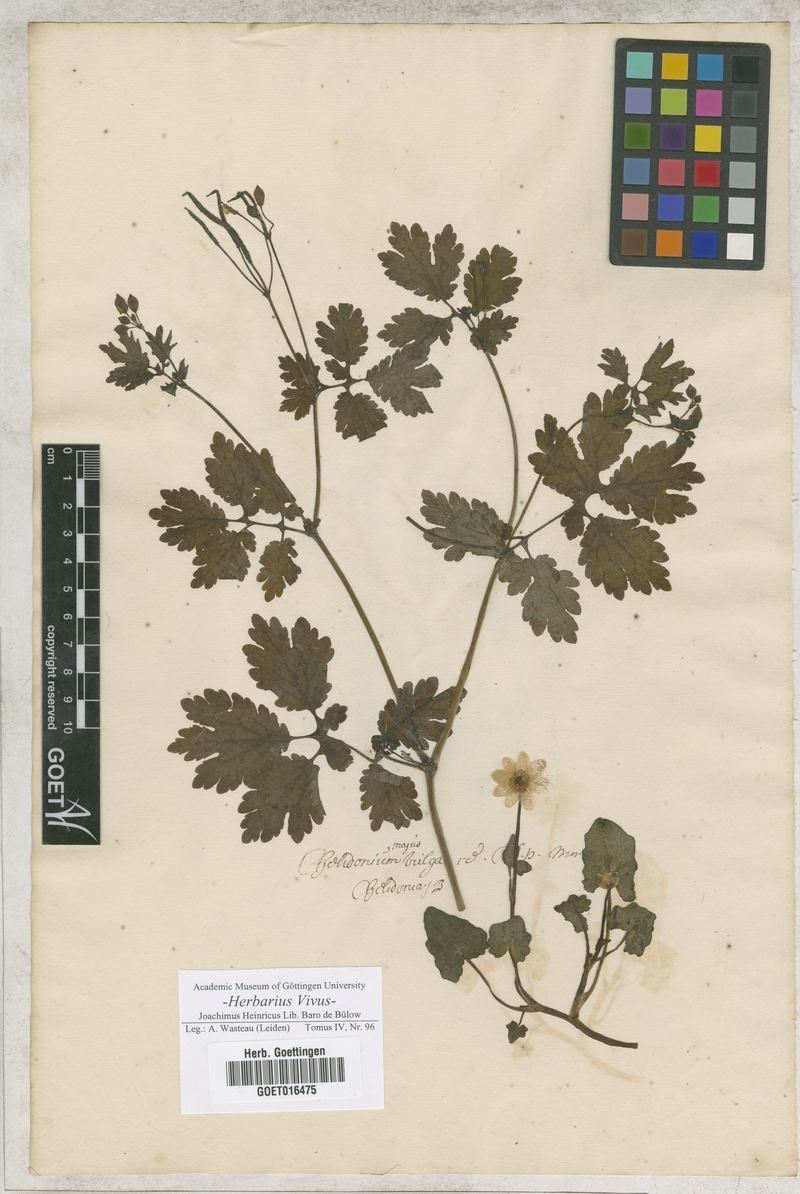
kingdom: Plantae
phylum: Tracheophyta
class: Magnoliopsida
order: Ranunculales
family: Papaveraceae
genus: Chelidonium
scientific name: Chelidonium majus
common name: Greater celandine
